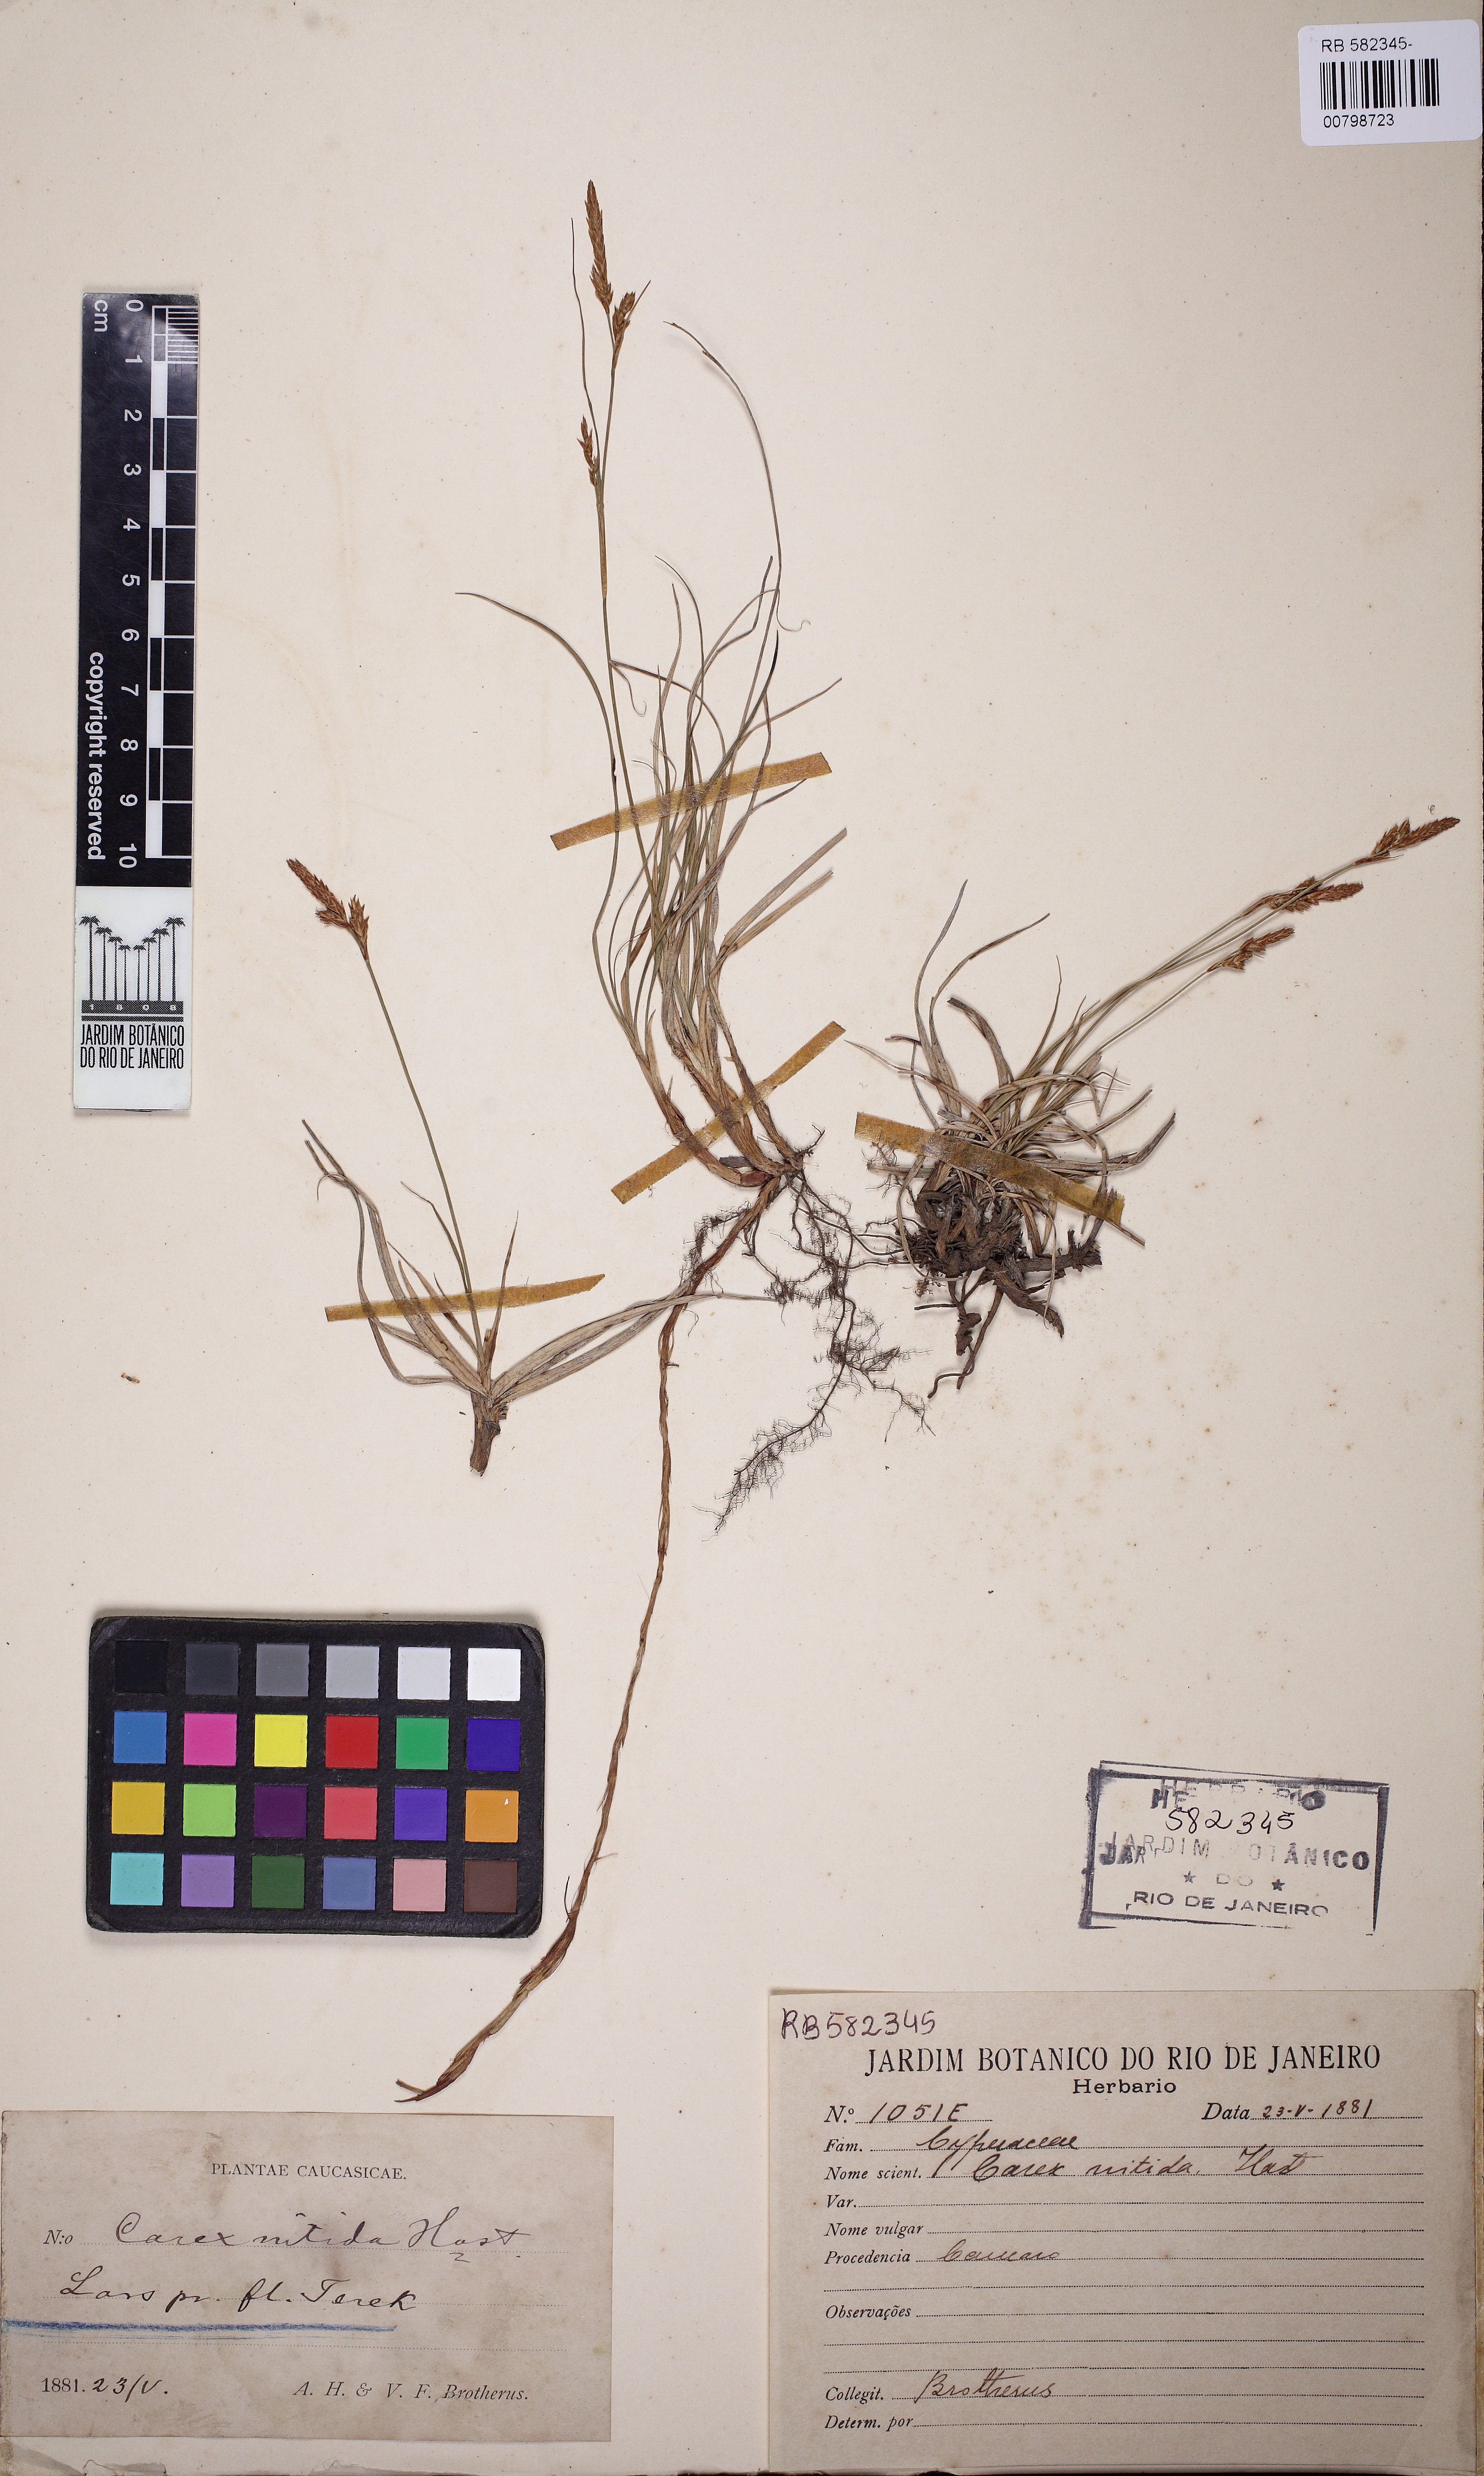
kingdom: Plantae
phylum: Tracheophyta
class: Liliopsida
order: Poales
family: Cyperaceae
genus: Carex
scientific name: Carex liparocarpos
